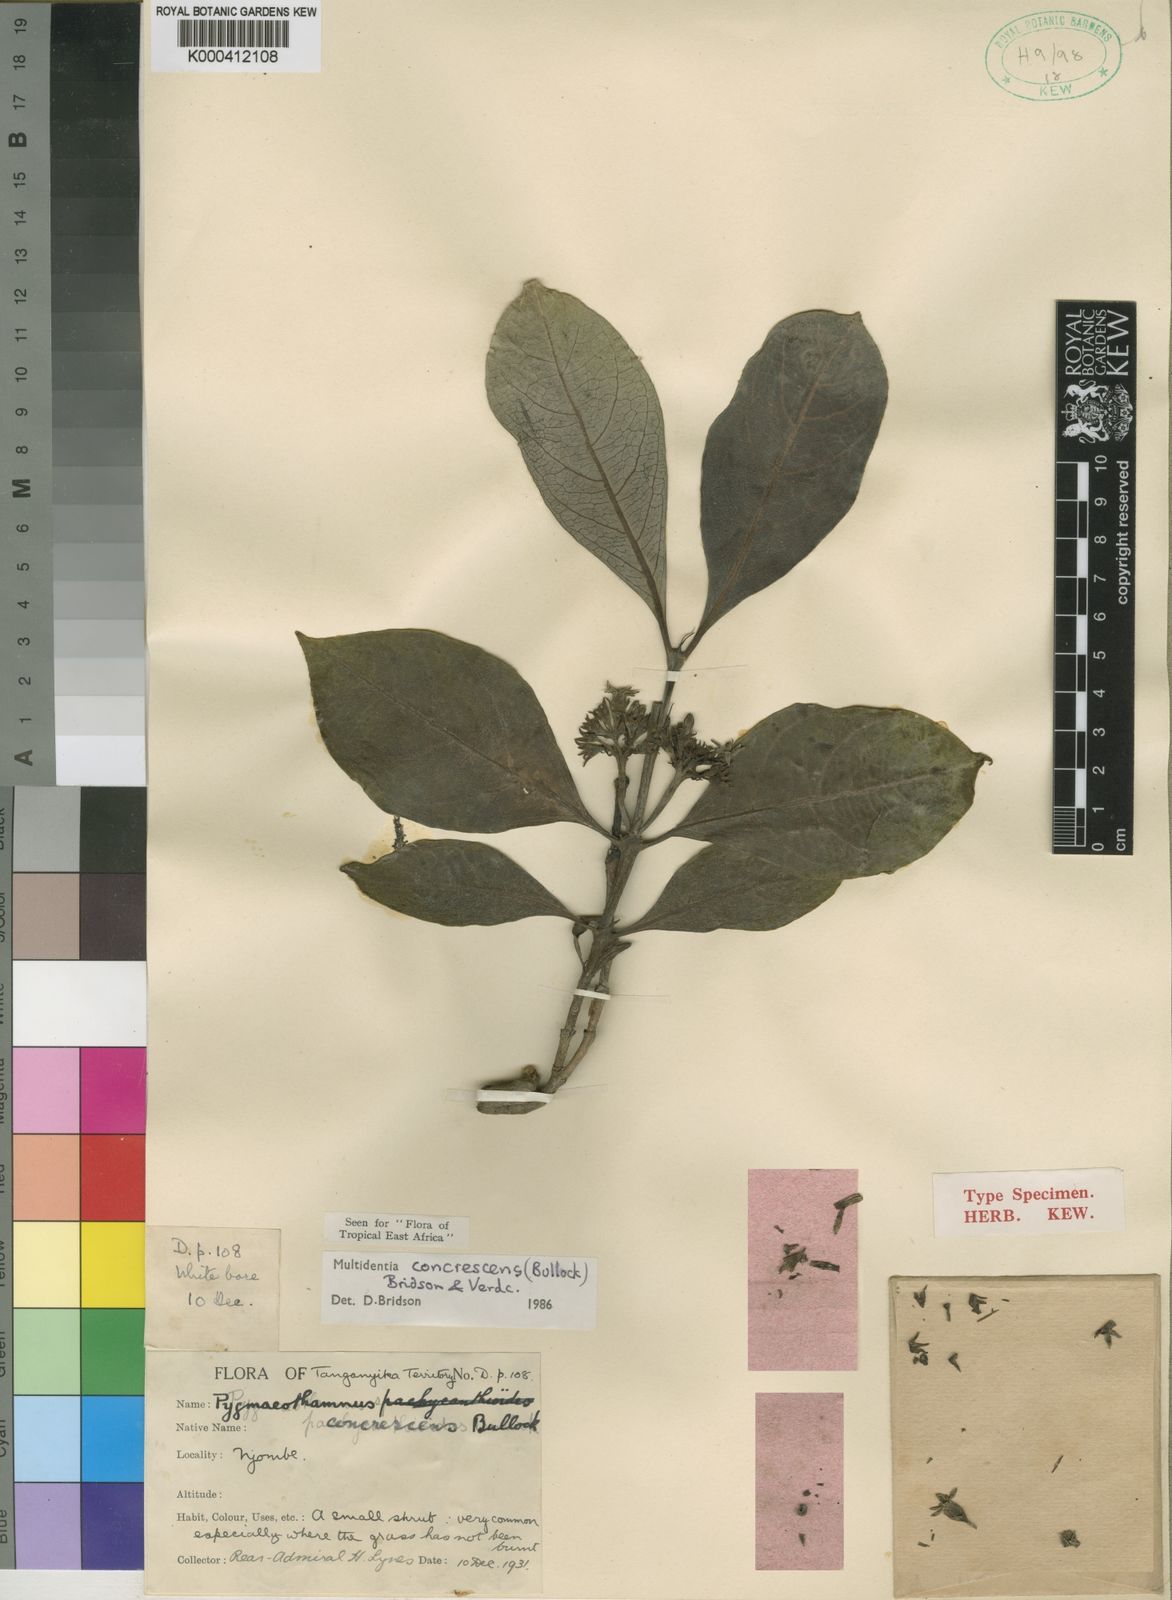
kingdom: Plantae
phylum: Tracheophyta
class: Magnoliopsida
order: Gentianales
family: Rubiaceae
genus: Multidentia
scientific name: Multidentia concrescens
